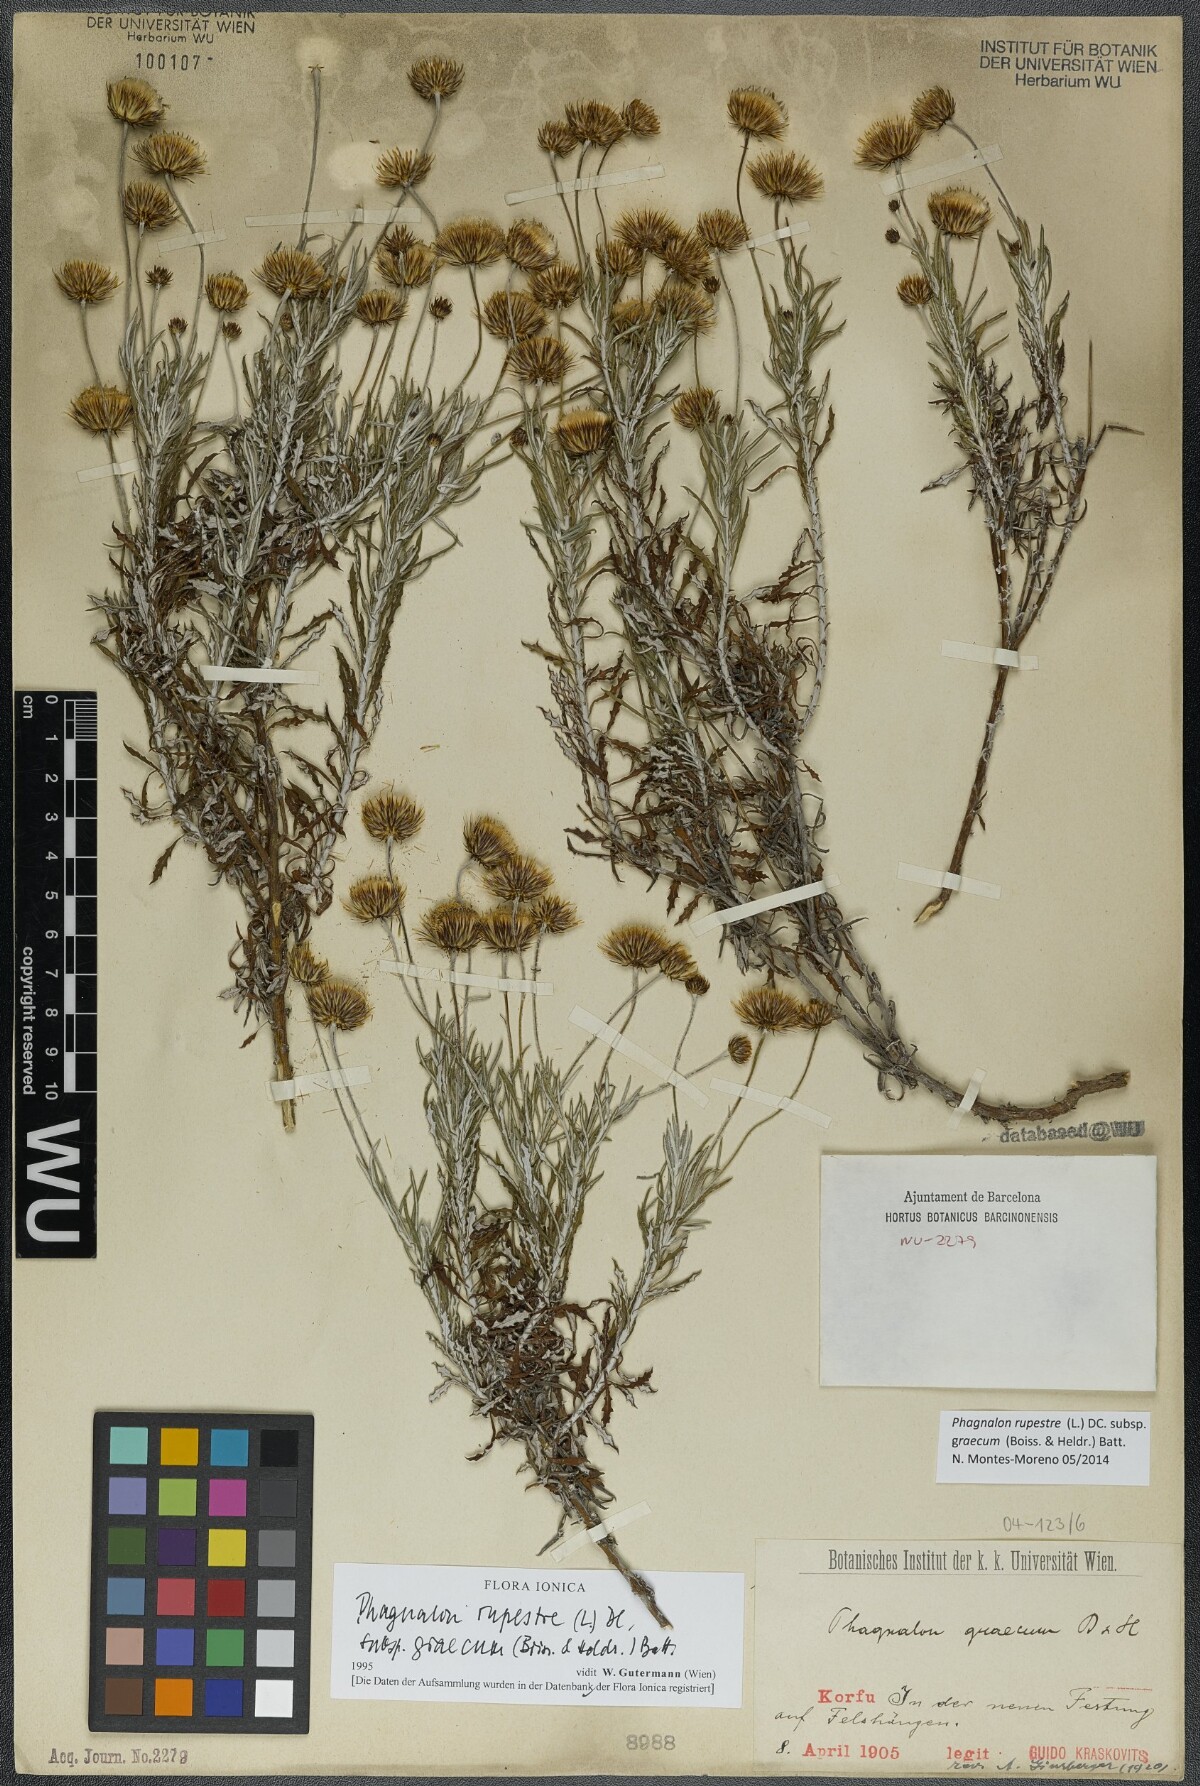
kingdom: Plantae
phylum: Tracheophyta
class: Magnoliopsida
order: Asterales
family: Asteraceae
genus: Phagnalon
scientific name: Phagnalon graecum
